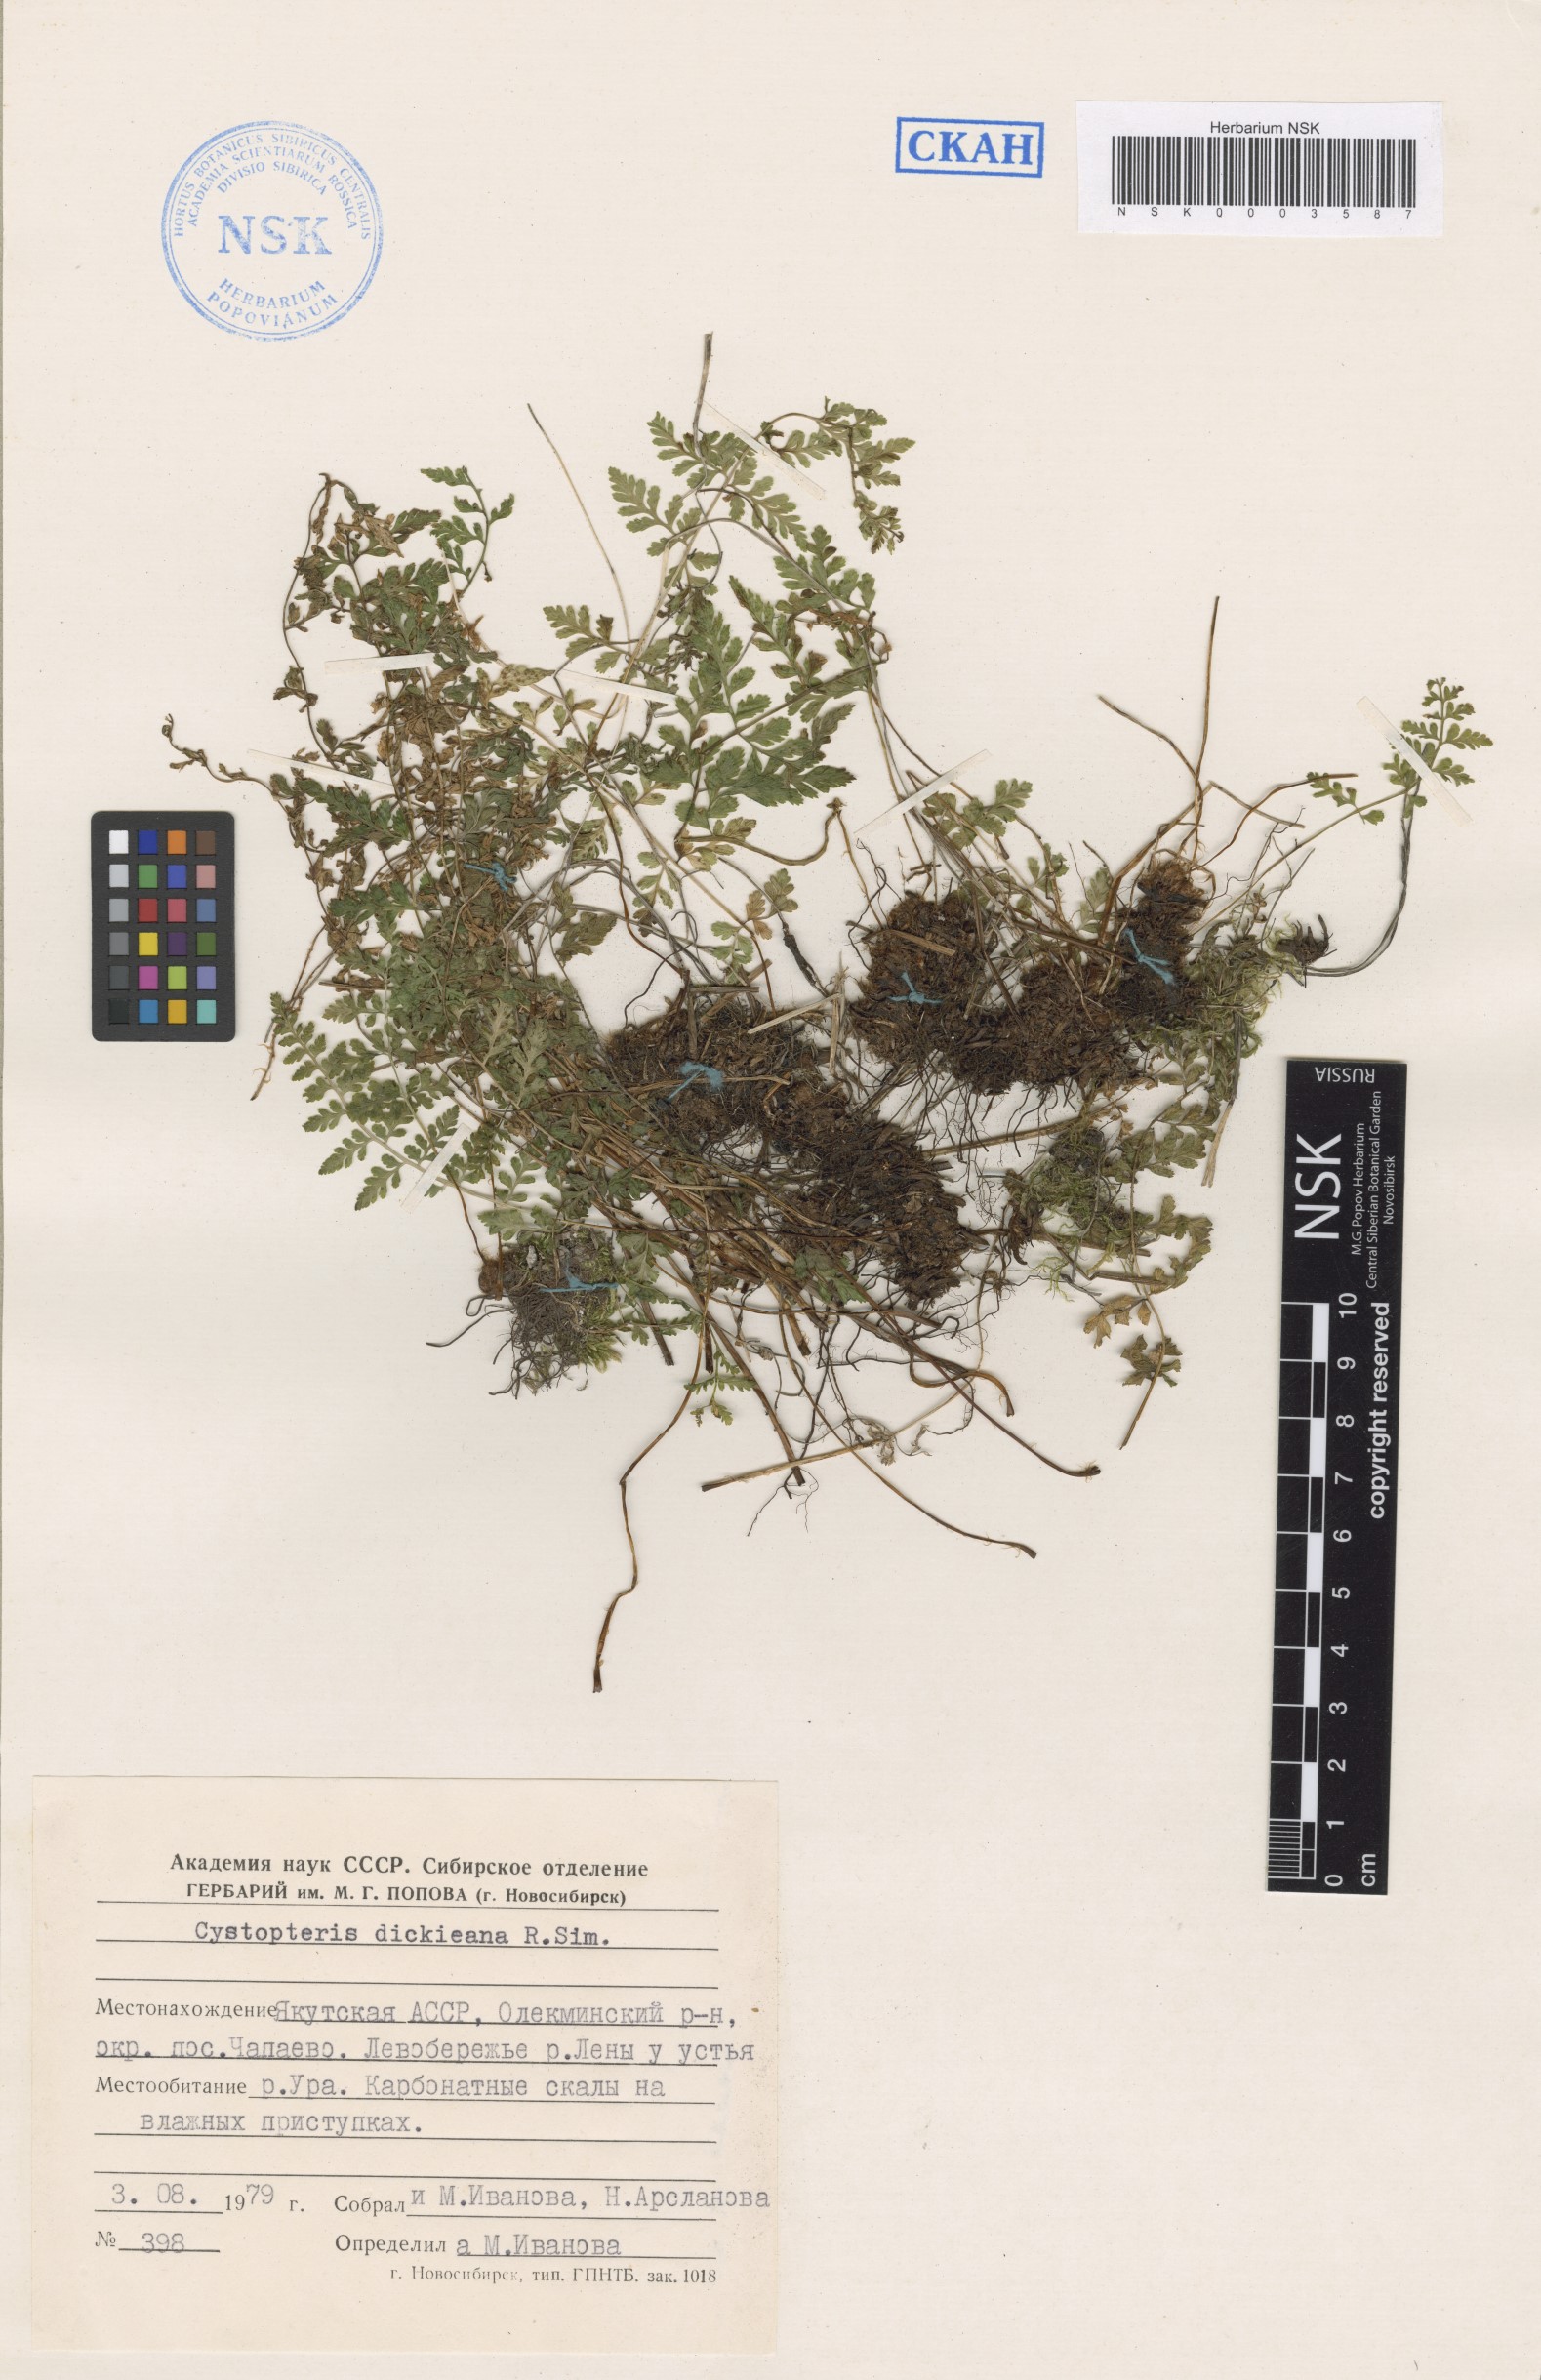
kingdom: Plantae
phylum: Tracheophyta
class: Polypodiopsida
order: Polypodiales
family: Cystopteridaceae
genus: Cystopteris
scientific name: Cystopteris dickieana
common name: Dickie's bladder-fern
